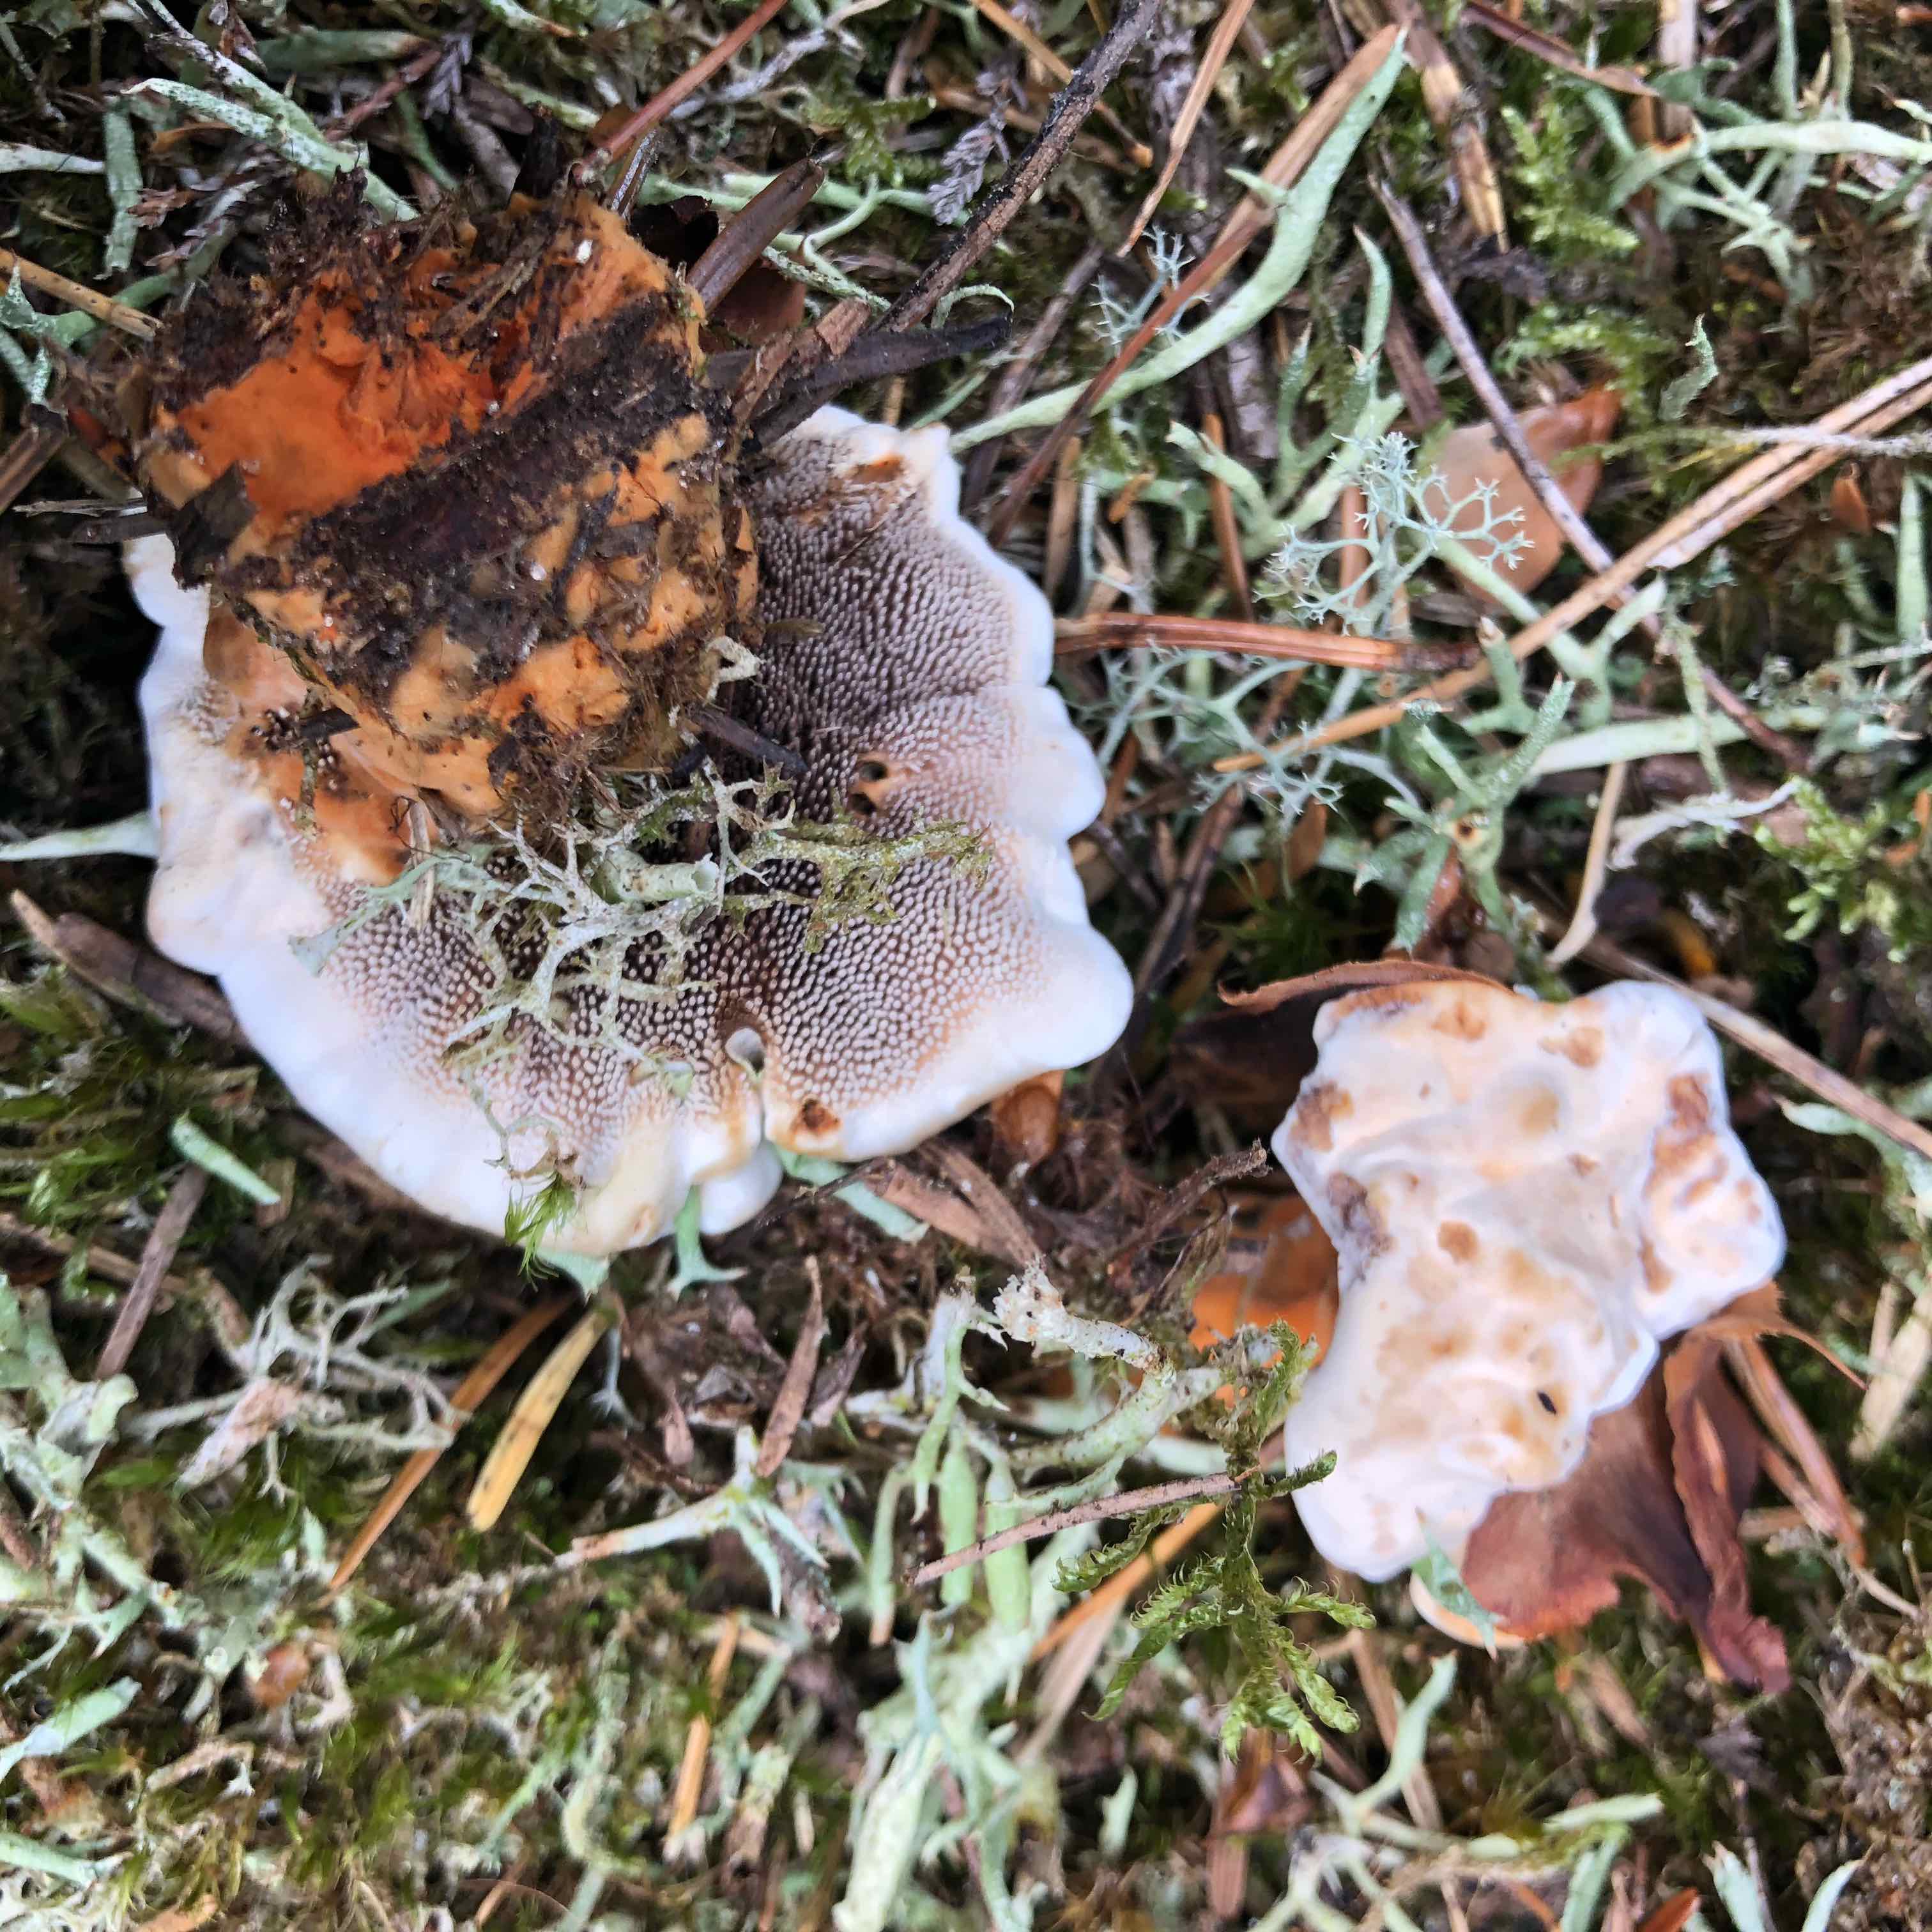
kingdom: Fungi
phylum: Basidiomycota
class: Agaricomycetes
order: Thelephorales
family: Bankeraceae
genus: Hydnellum
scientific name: Hydnellum aurantiacum
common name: orange korkpigsvamp
